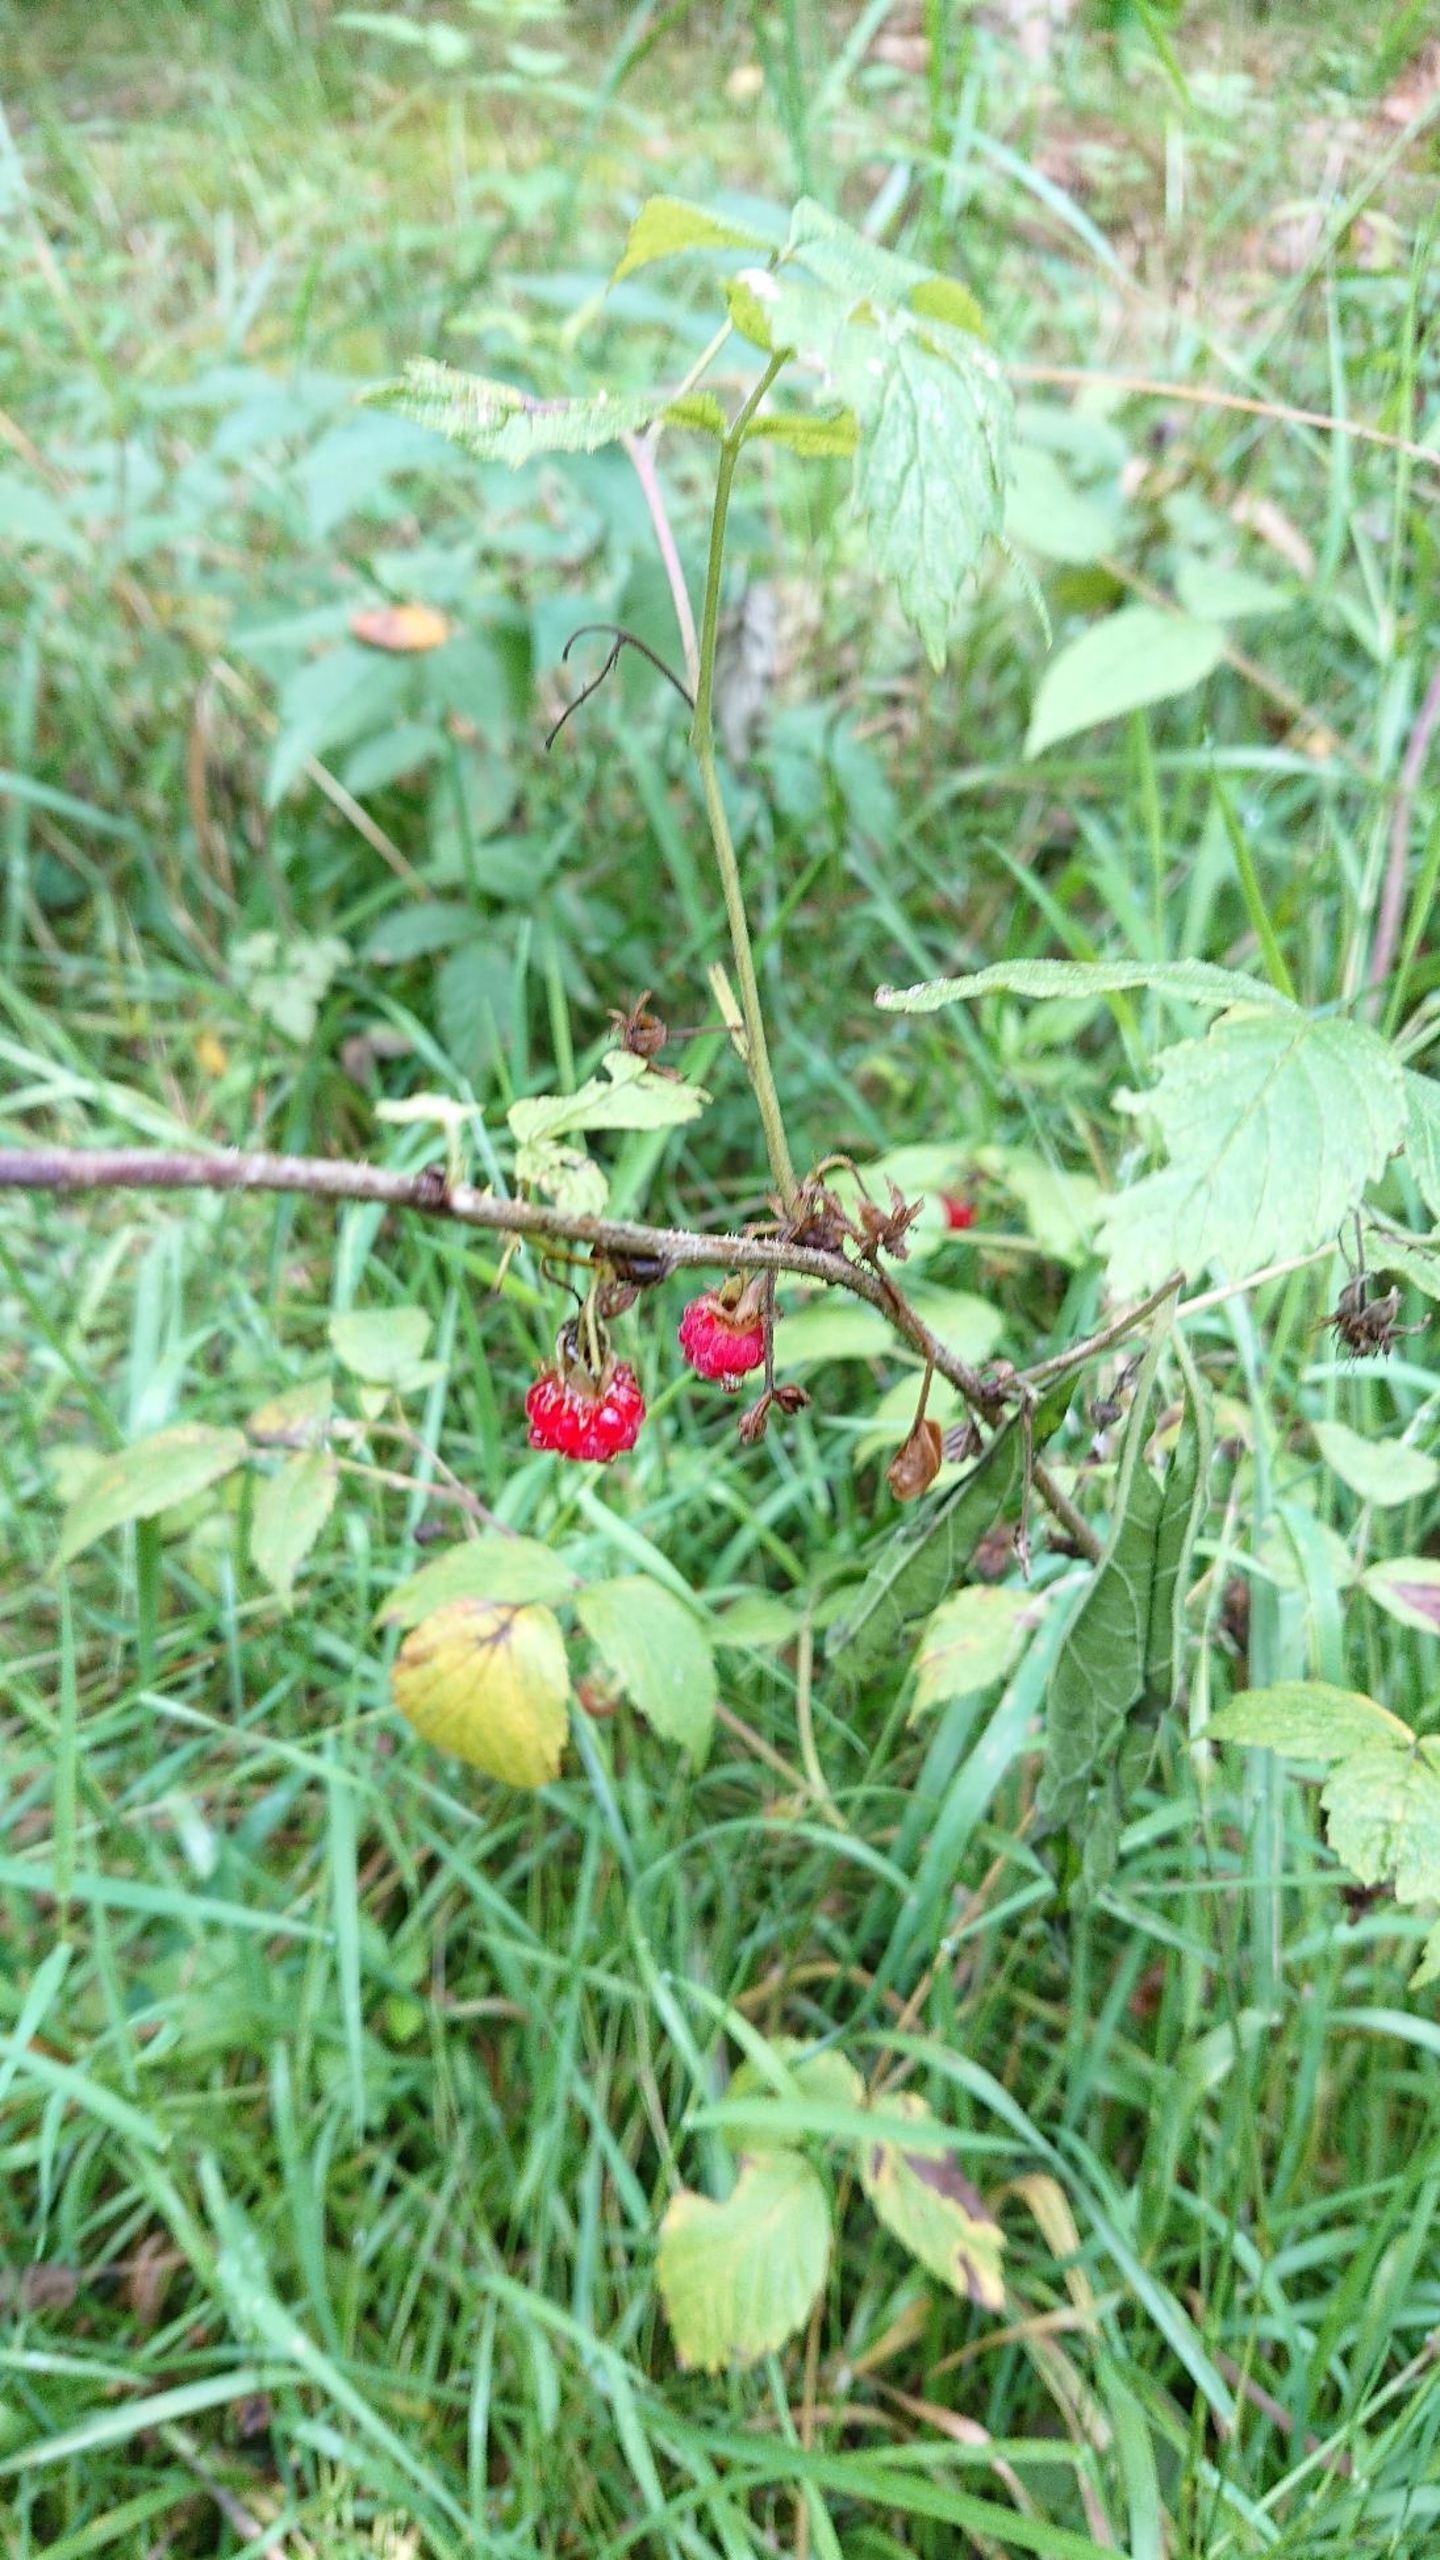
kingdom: Plantae
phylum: Tracheophyta
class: Magnoliopsida
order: Rosales
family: Rosaceae
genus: Rubus
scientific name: Rubus idaeus
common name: Hindbær
